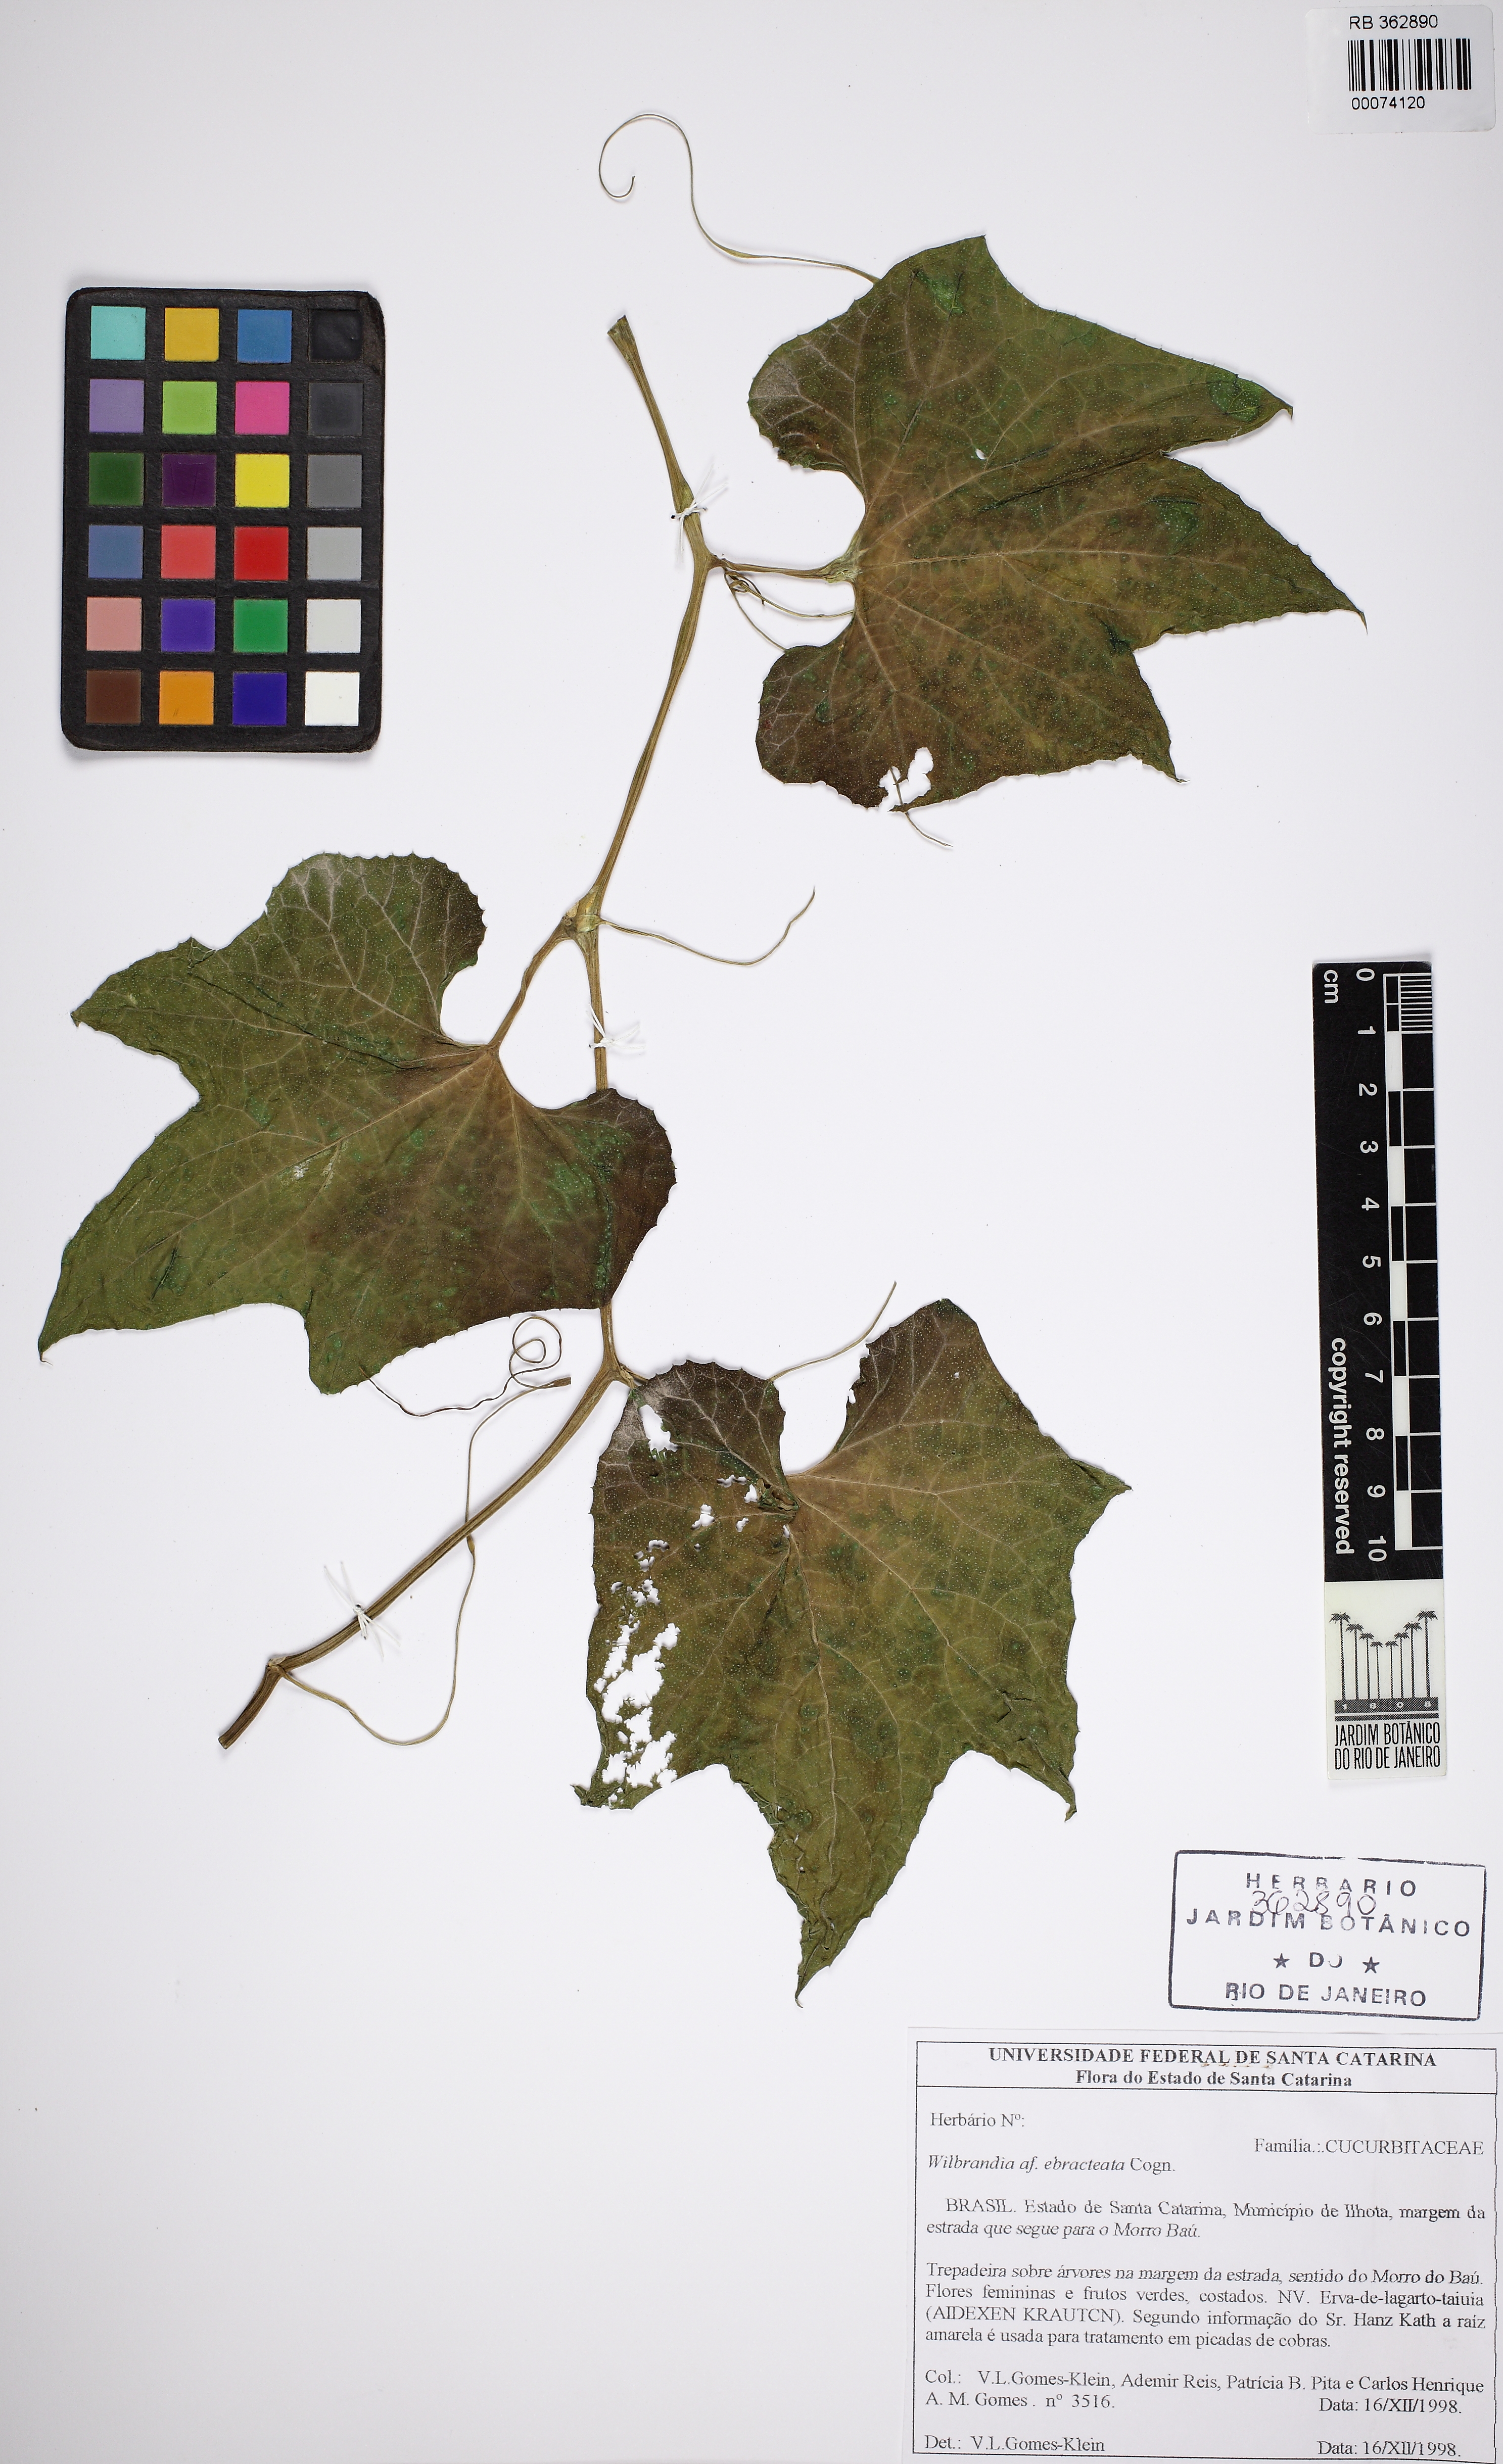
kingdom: Plantae
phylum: Tracheophyta
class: Magnoliopsida
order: Cucurbitales
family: Cucurbitaceae
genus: Wilbrandia
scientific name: Wilbrandia ebracteata
